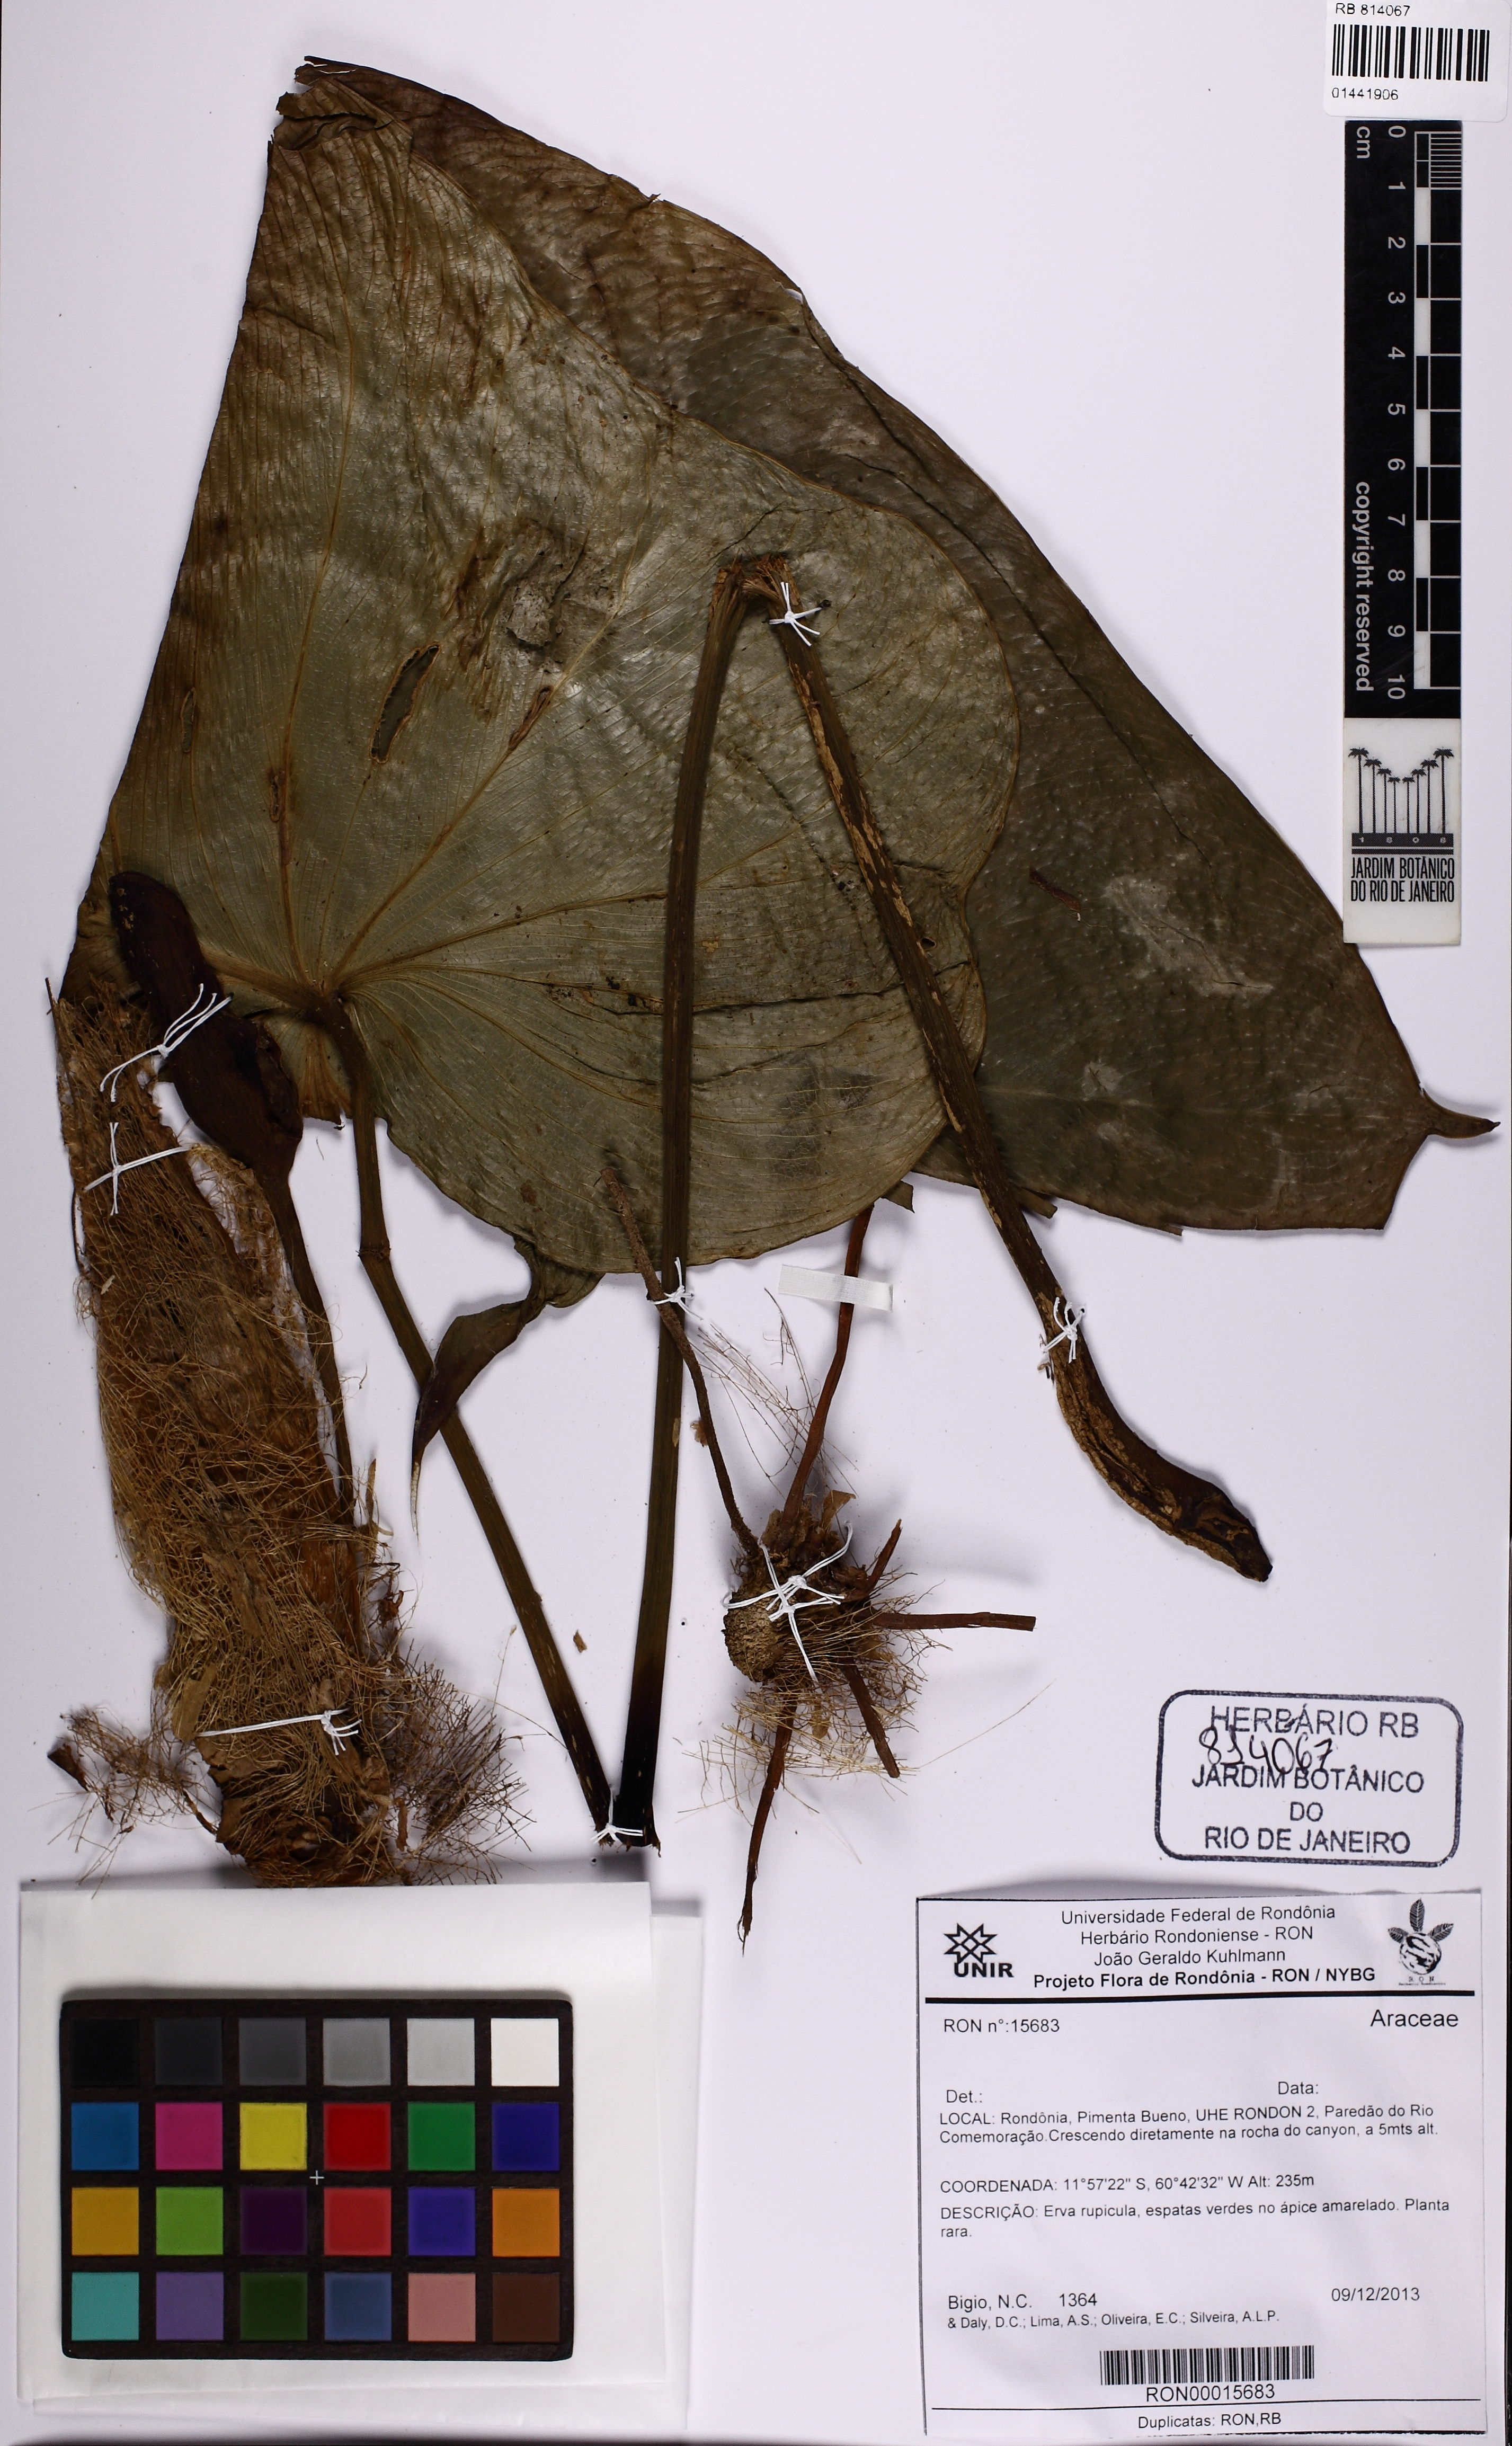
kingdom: Plantae
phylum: Tracheophyta
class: Liliopsida
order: Alismatales
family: Araceae
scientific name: Araceae
